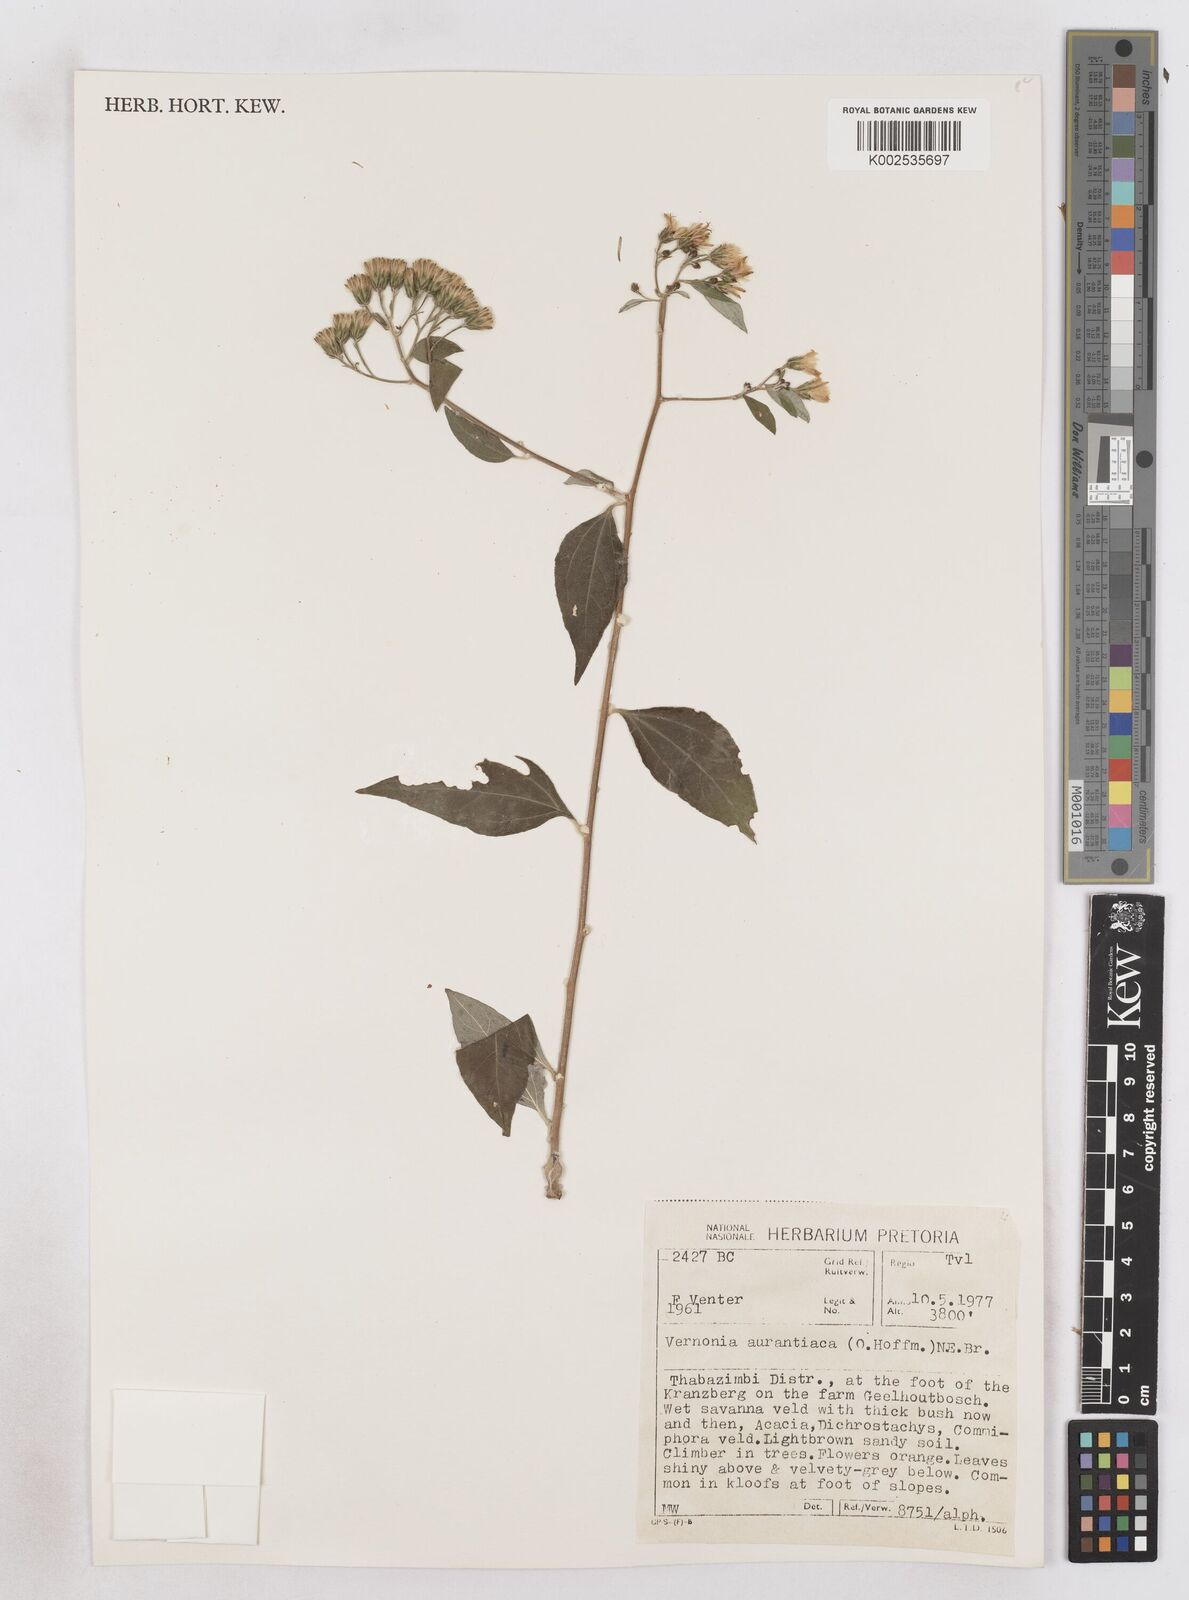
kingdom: Plantae
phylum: Tracheophyta
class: Magnoliopsida
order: Asterales
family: Asteraceae
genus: Distephanus
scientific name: Distephanus
